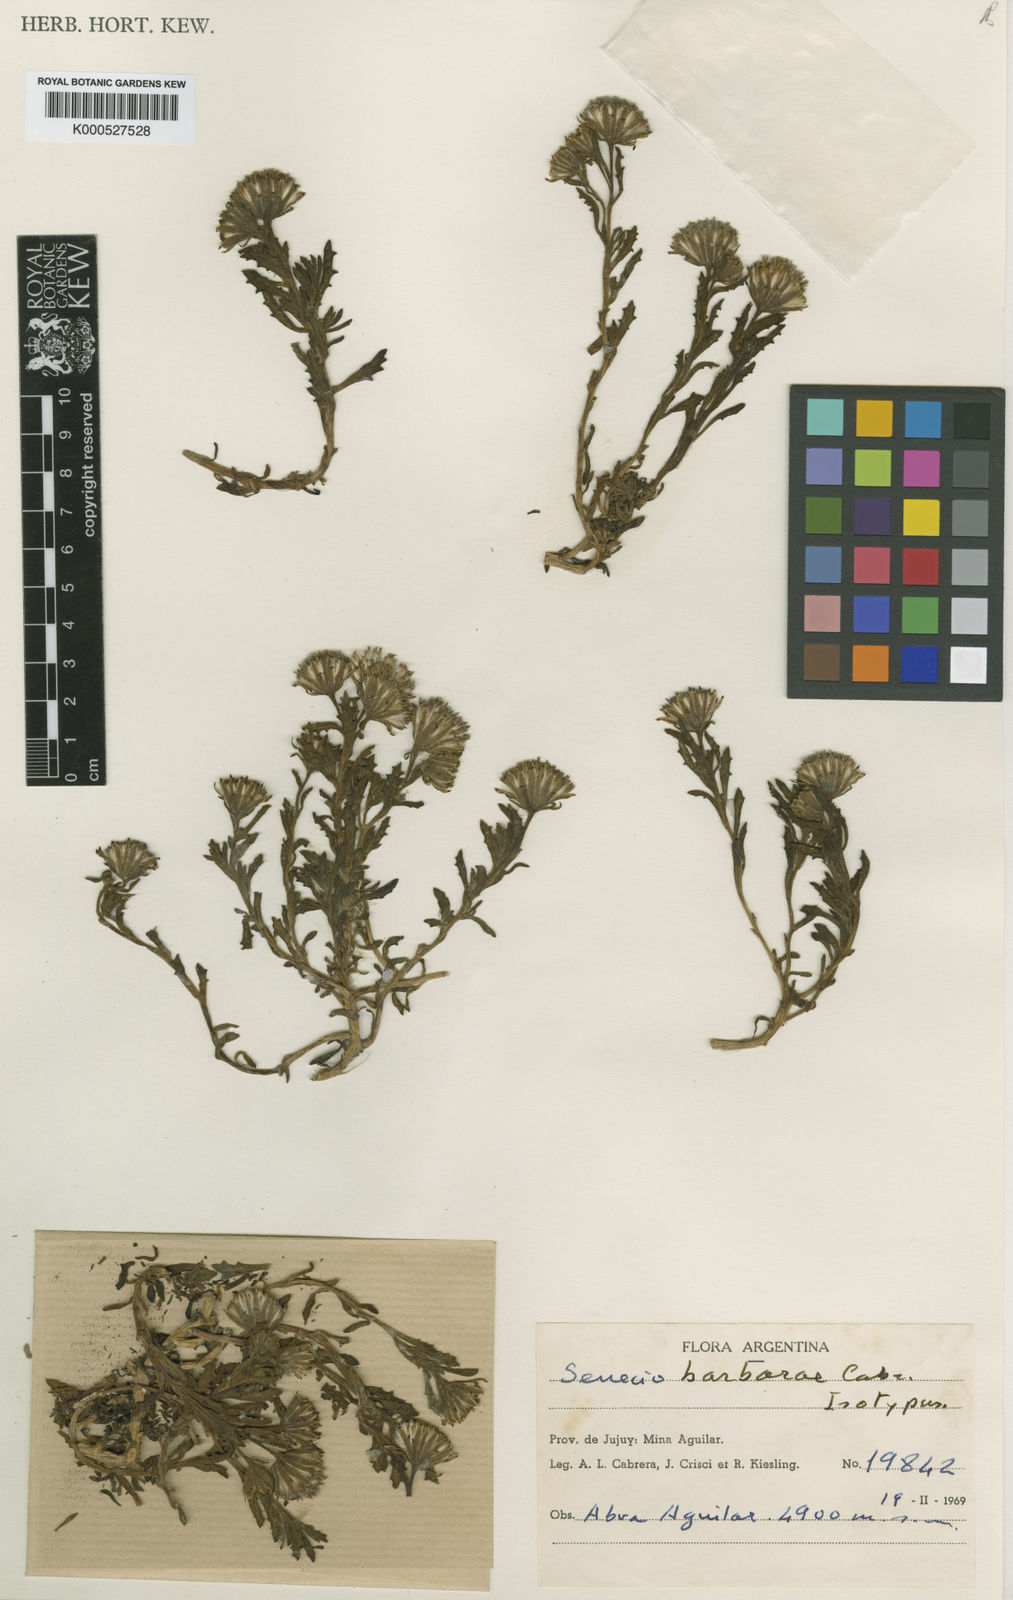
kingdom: Plantae
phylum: Tracheophyta
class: Magnoliopsida
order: Asterales
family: Asteraceae
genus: Senecio
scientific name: Senecio barbarae
